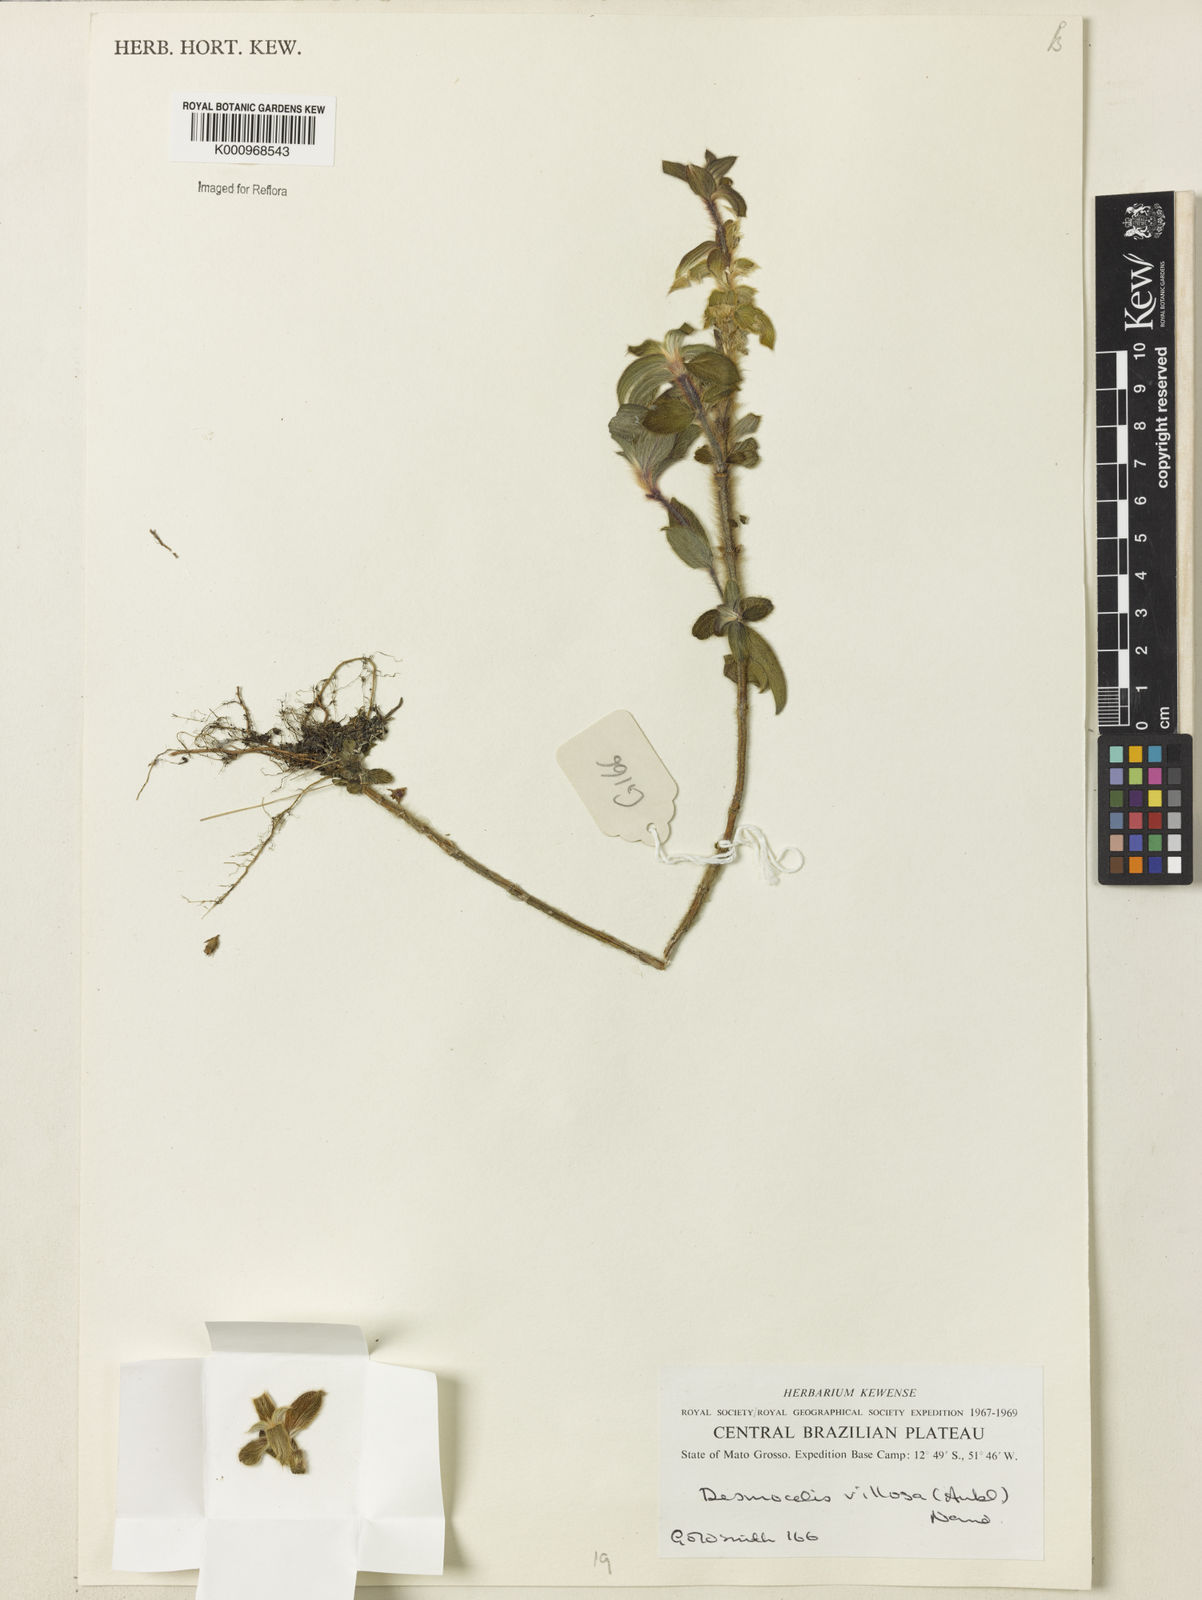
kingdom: Plantae
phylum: Tracheophyta
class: Magnoliopsida
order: Myrtales
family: Melastomataceae
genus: Desmoscelis
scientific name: Desmoscelis villosa
